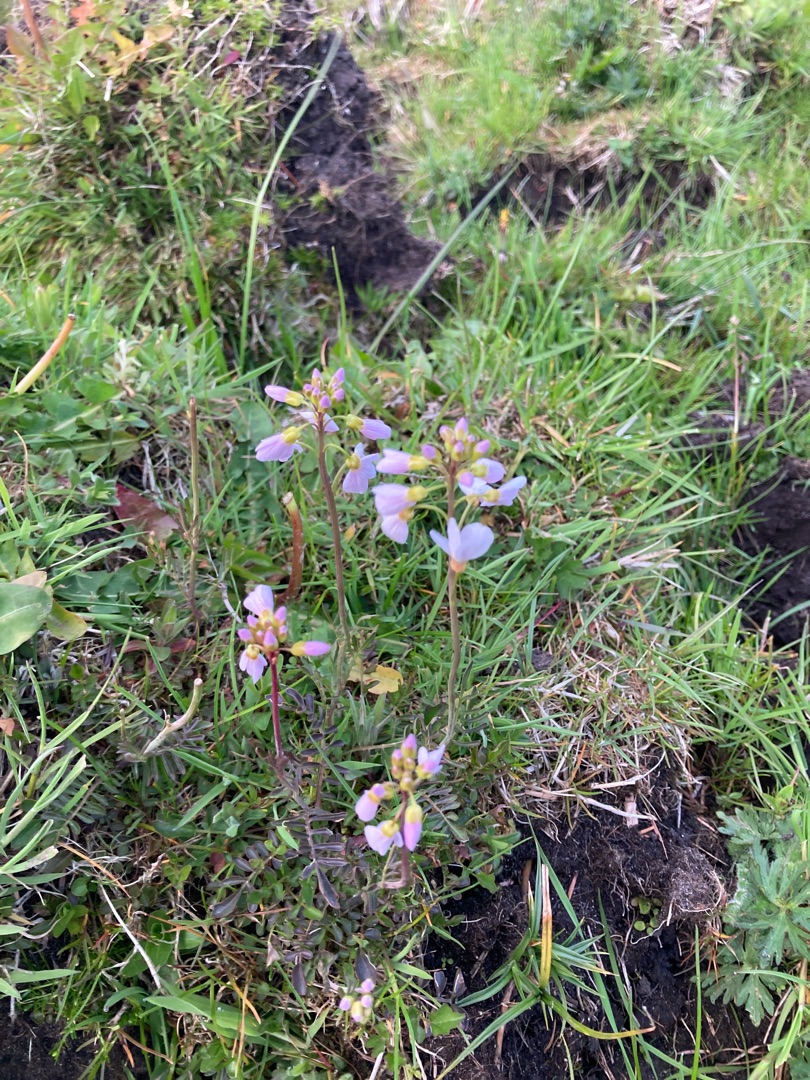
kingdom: Plantae
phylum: Tracheophyta
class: Magnoliopsida
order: Brassicales
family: Brassicaceae
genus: Cardamine
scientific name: Cardamine pratensis
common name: Engkarse
